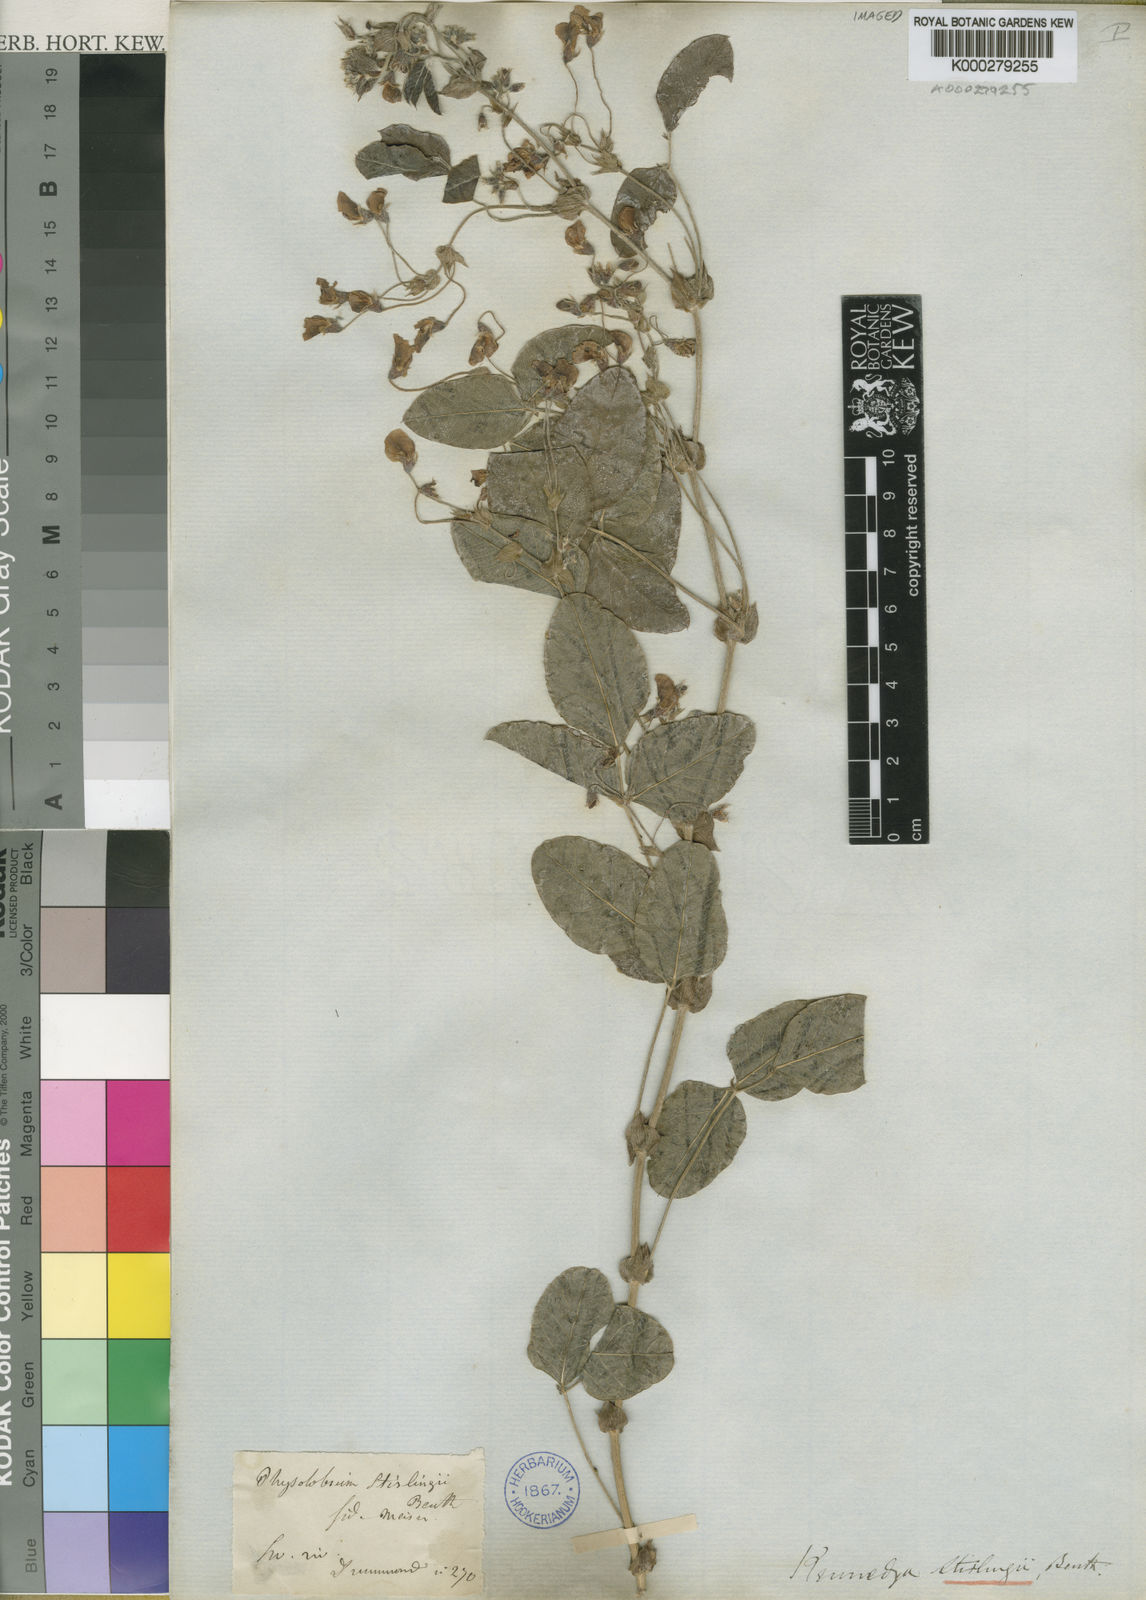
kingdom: Plantae
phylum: Tracheophyta
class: Magnoliopsida
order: Fabales
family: Fabaceae
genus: Kennedia
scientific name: Kennedia stirlingii
